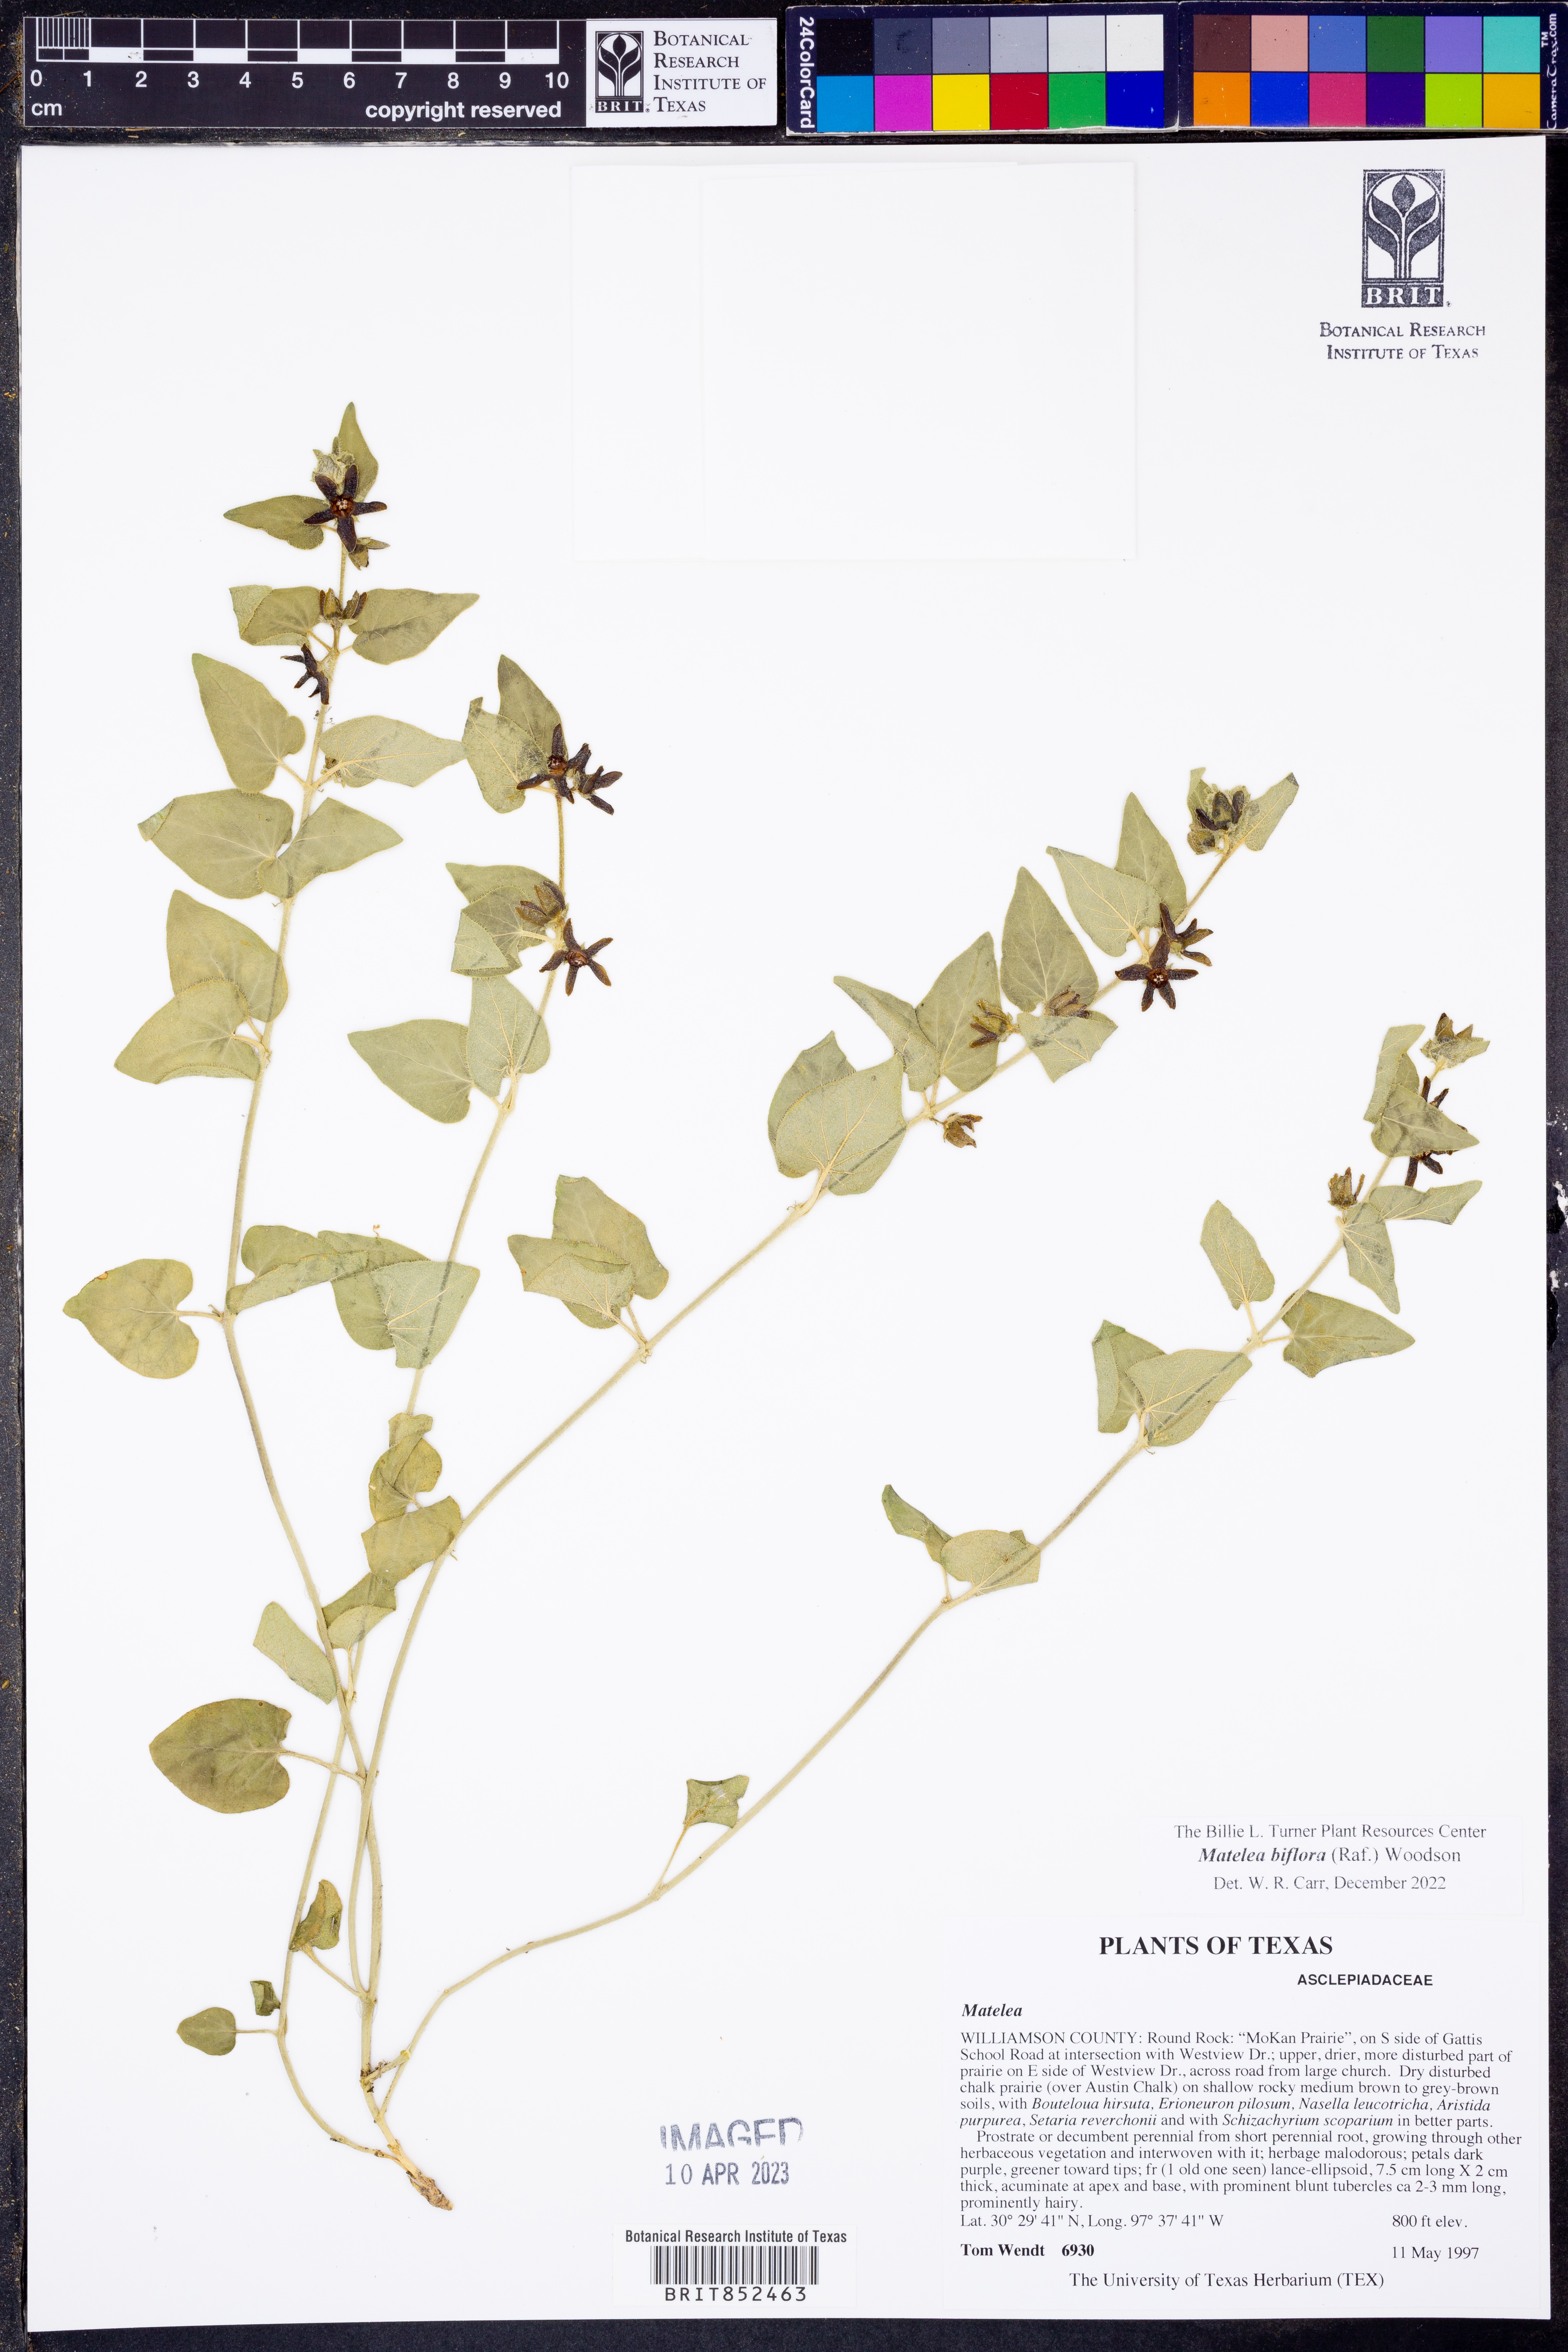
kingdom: Plantae
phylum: Tracheophyta
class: Magnoliopsida
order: Gentianales
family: Apocynaceae
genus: Chthamalia
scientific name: Chthamalia biflora
